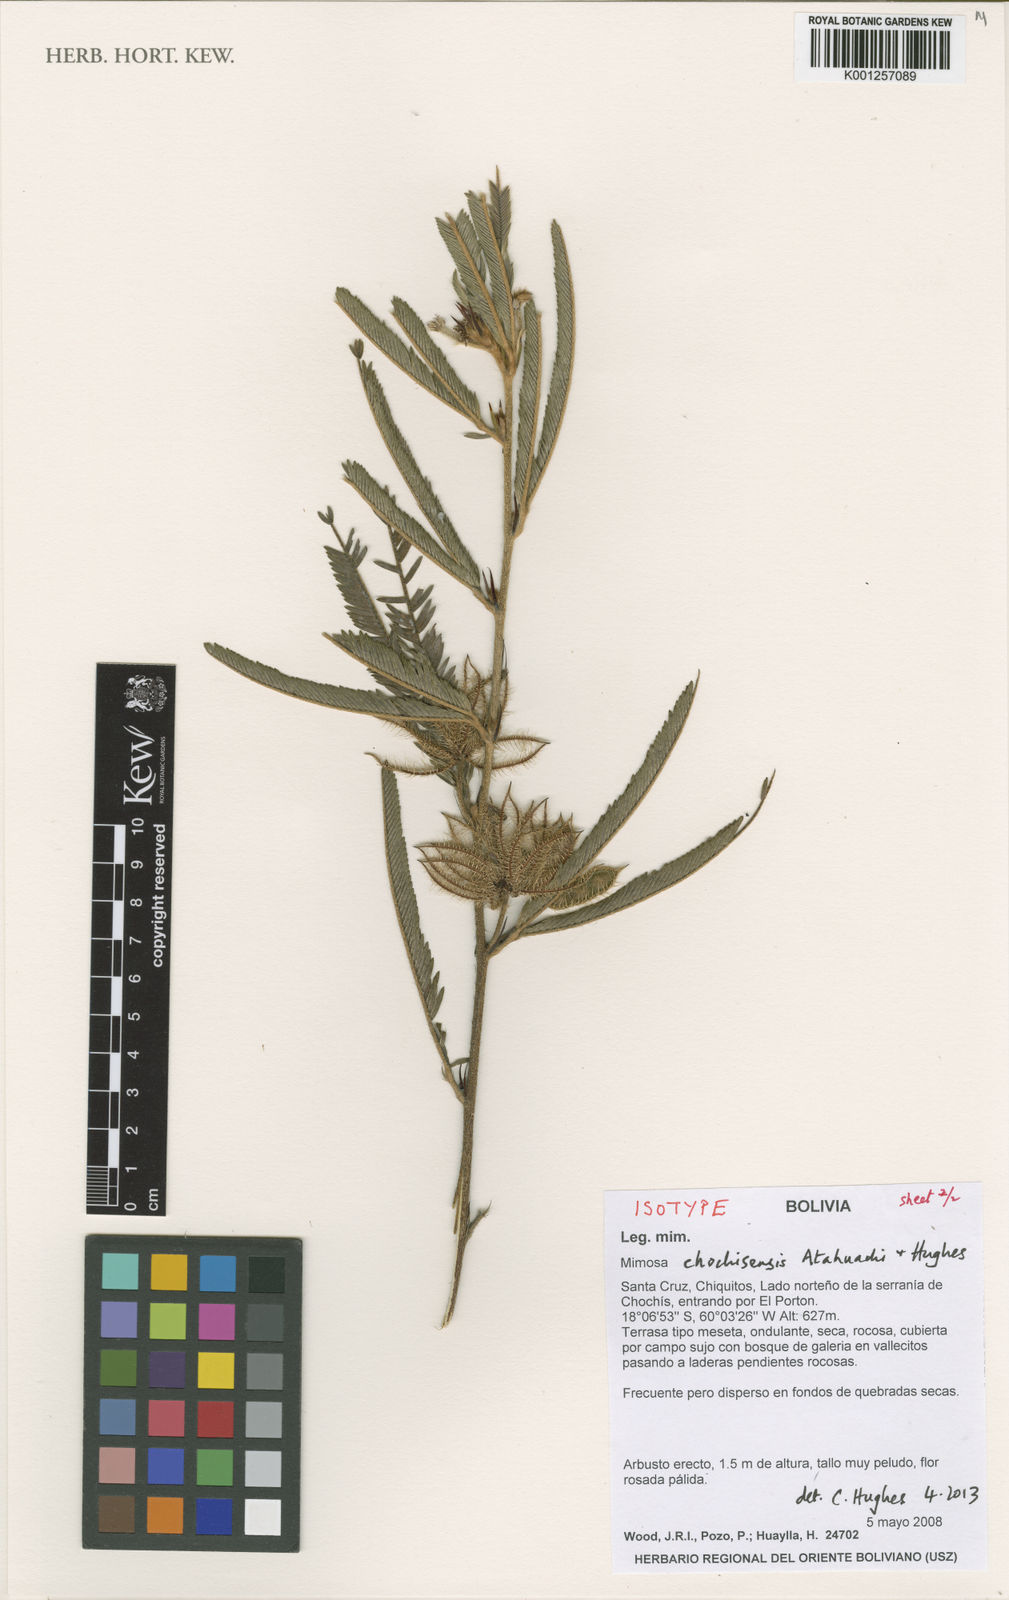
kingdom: Plantae
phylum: Tracheophyta
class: Magnoliopsida
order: Fabales
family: Fabaceae
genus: Mimosa
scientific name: Mimosa chochisensis
